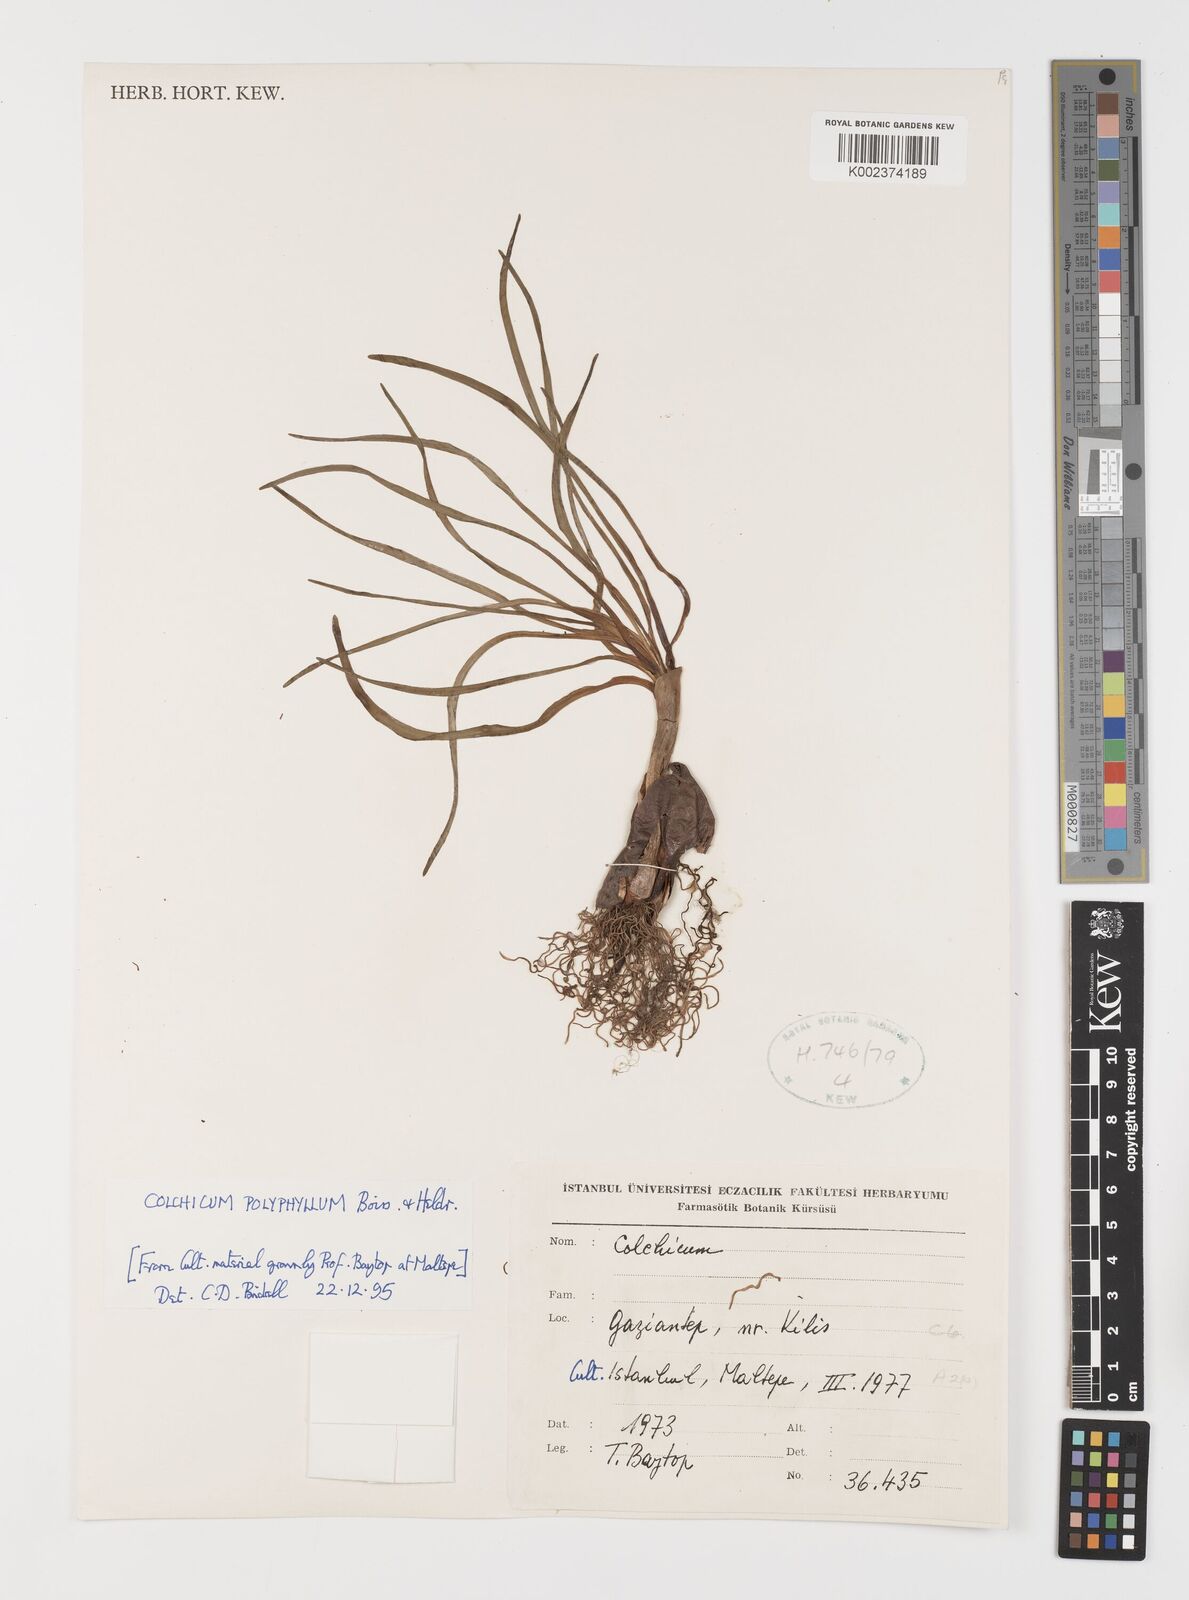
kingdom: Plantae
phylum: Tracheophyta
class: Liliopsida
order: Liliales
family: Colchicaceae
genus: Colchicum
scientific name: Colchicum polyphyllum
